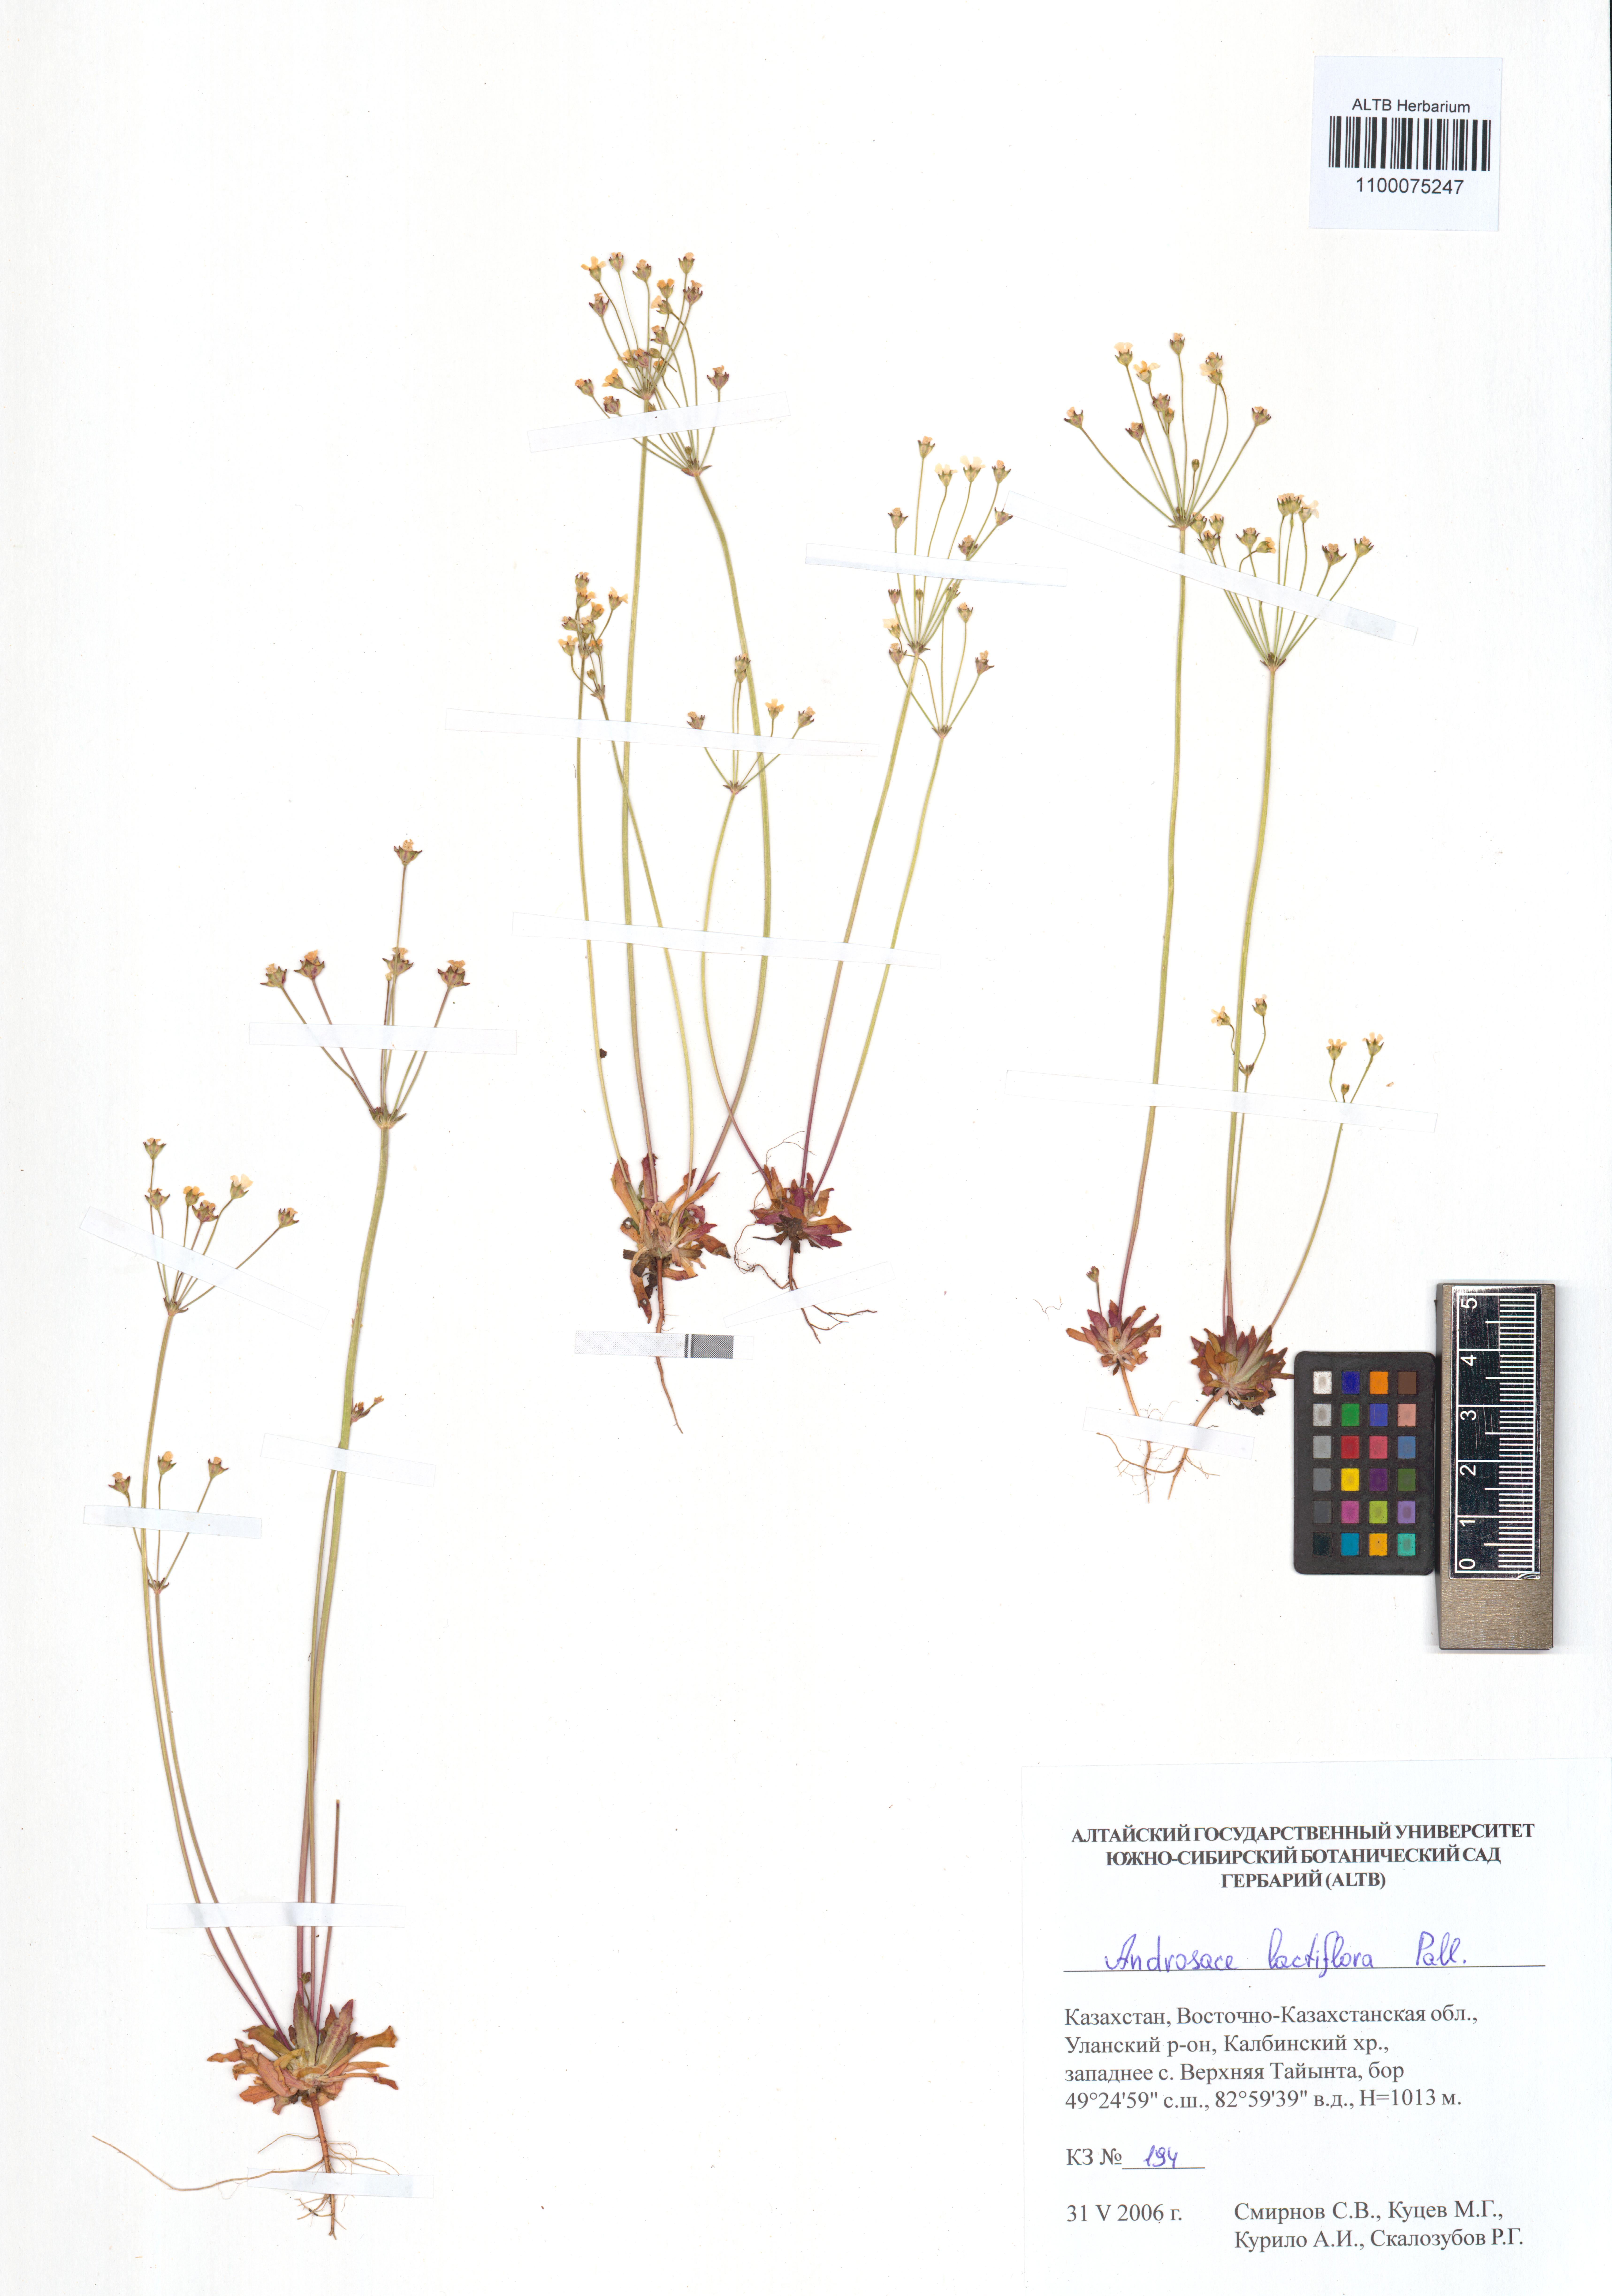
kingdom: Plantae
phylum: Tracheophyta
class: Magnoliopsida
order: Ericales
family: Primulaceae
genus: Androsace
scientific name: Androsace lactiflora
